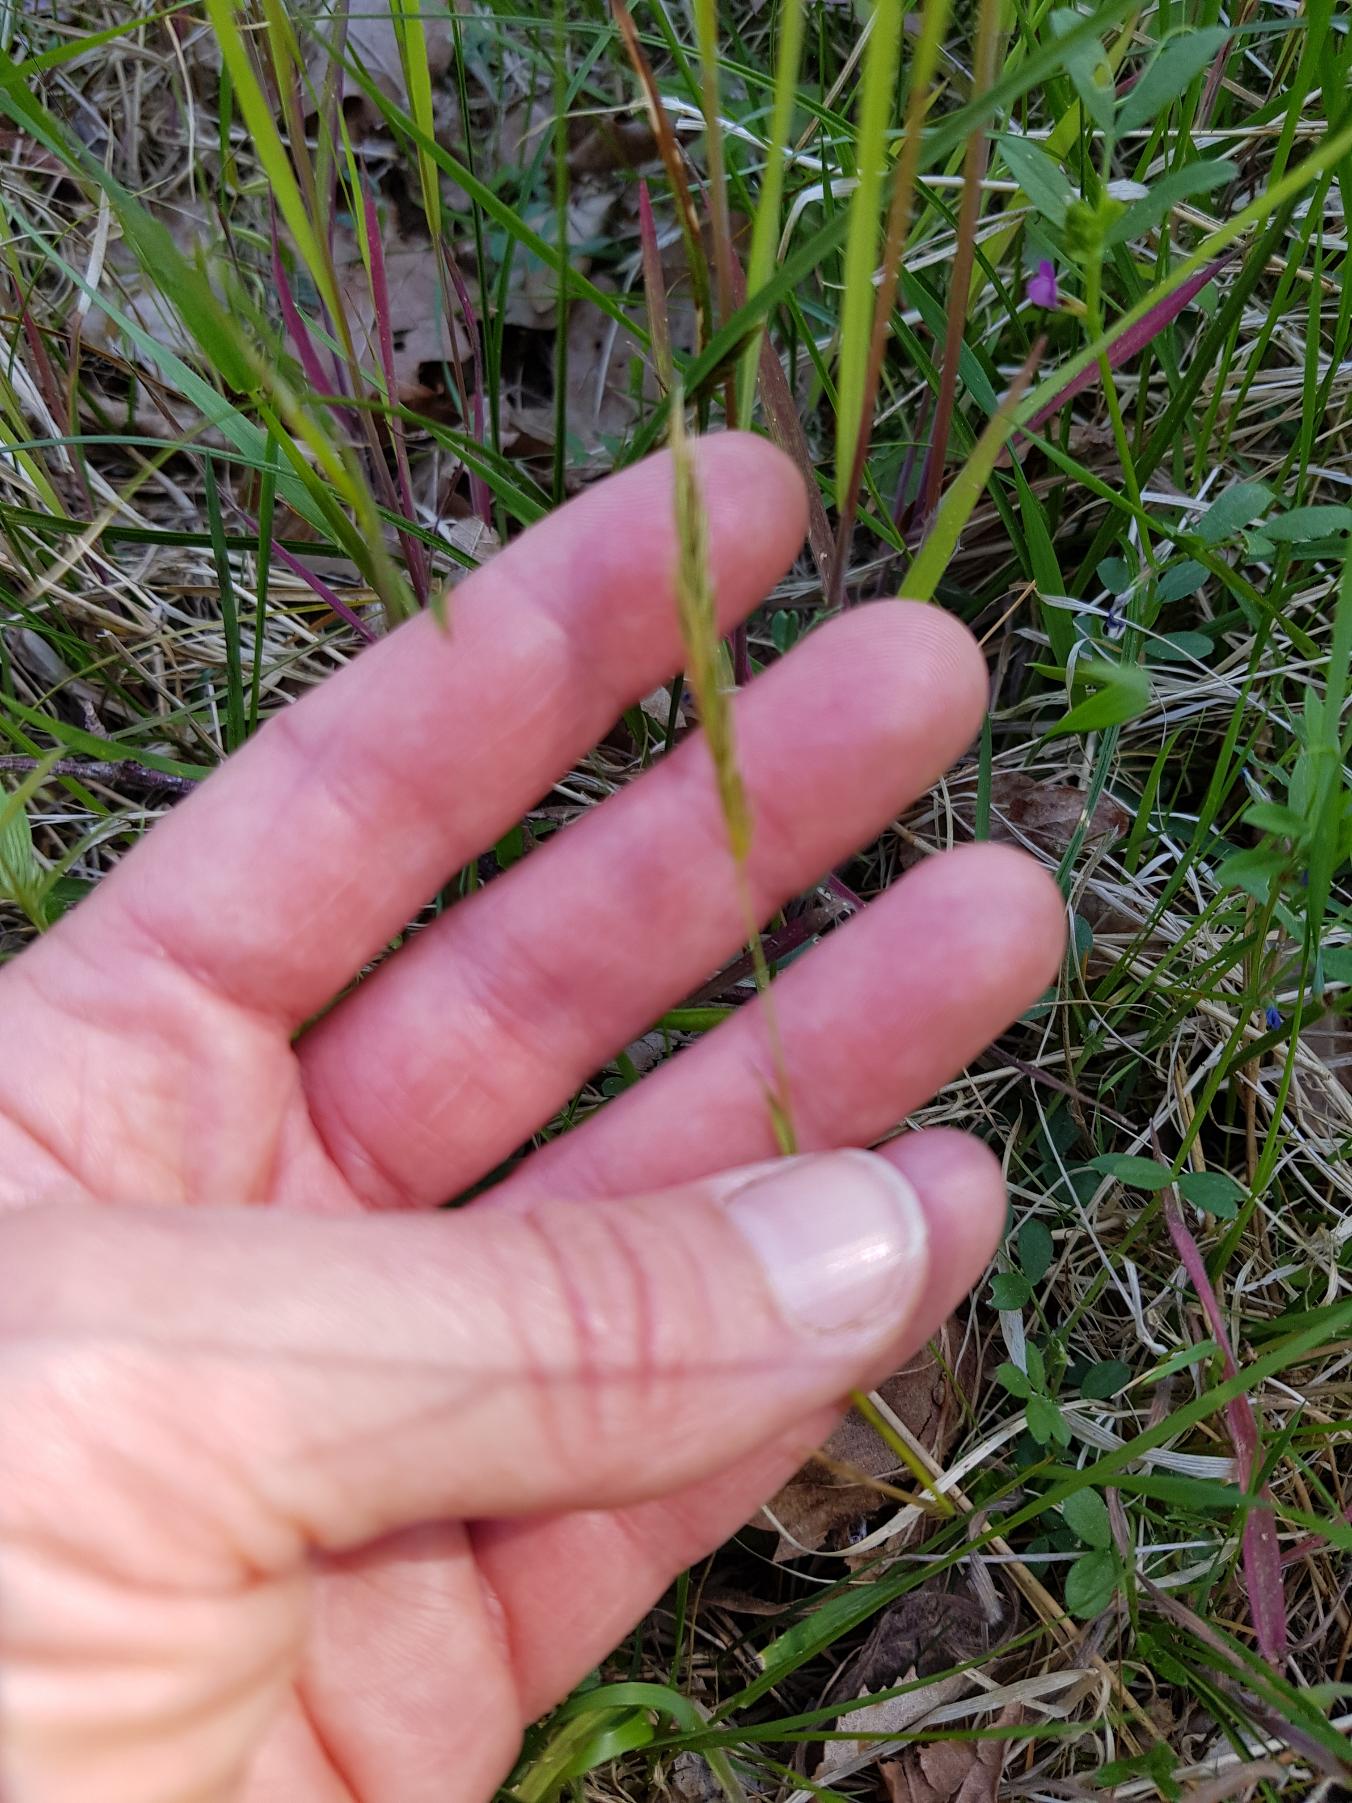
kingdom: Plantae
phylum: Tracheophyta
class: Liliopsida
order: Poales
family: Poaceae
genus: Anthoxanthum
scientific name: Anthoxanthum odoratum
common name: Vellugtende gulaks
